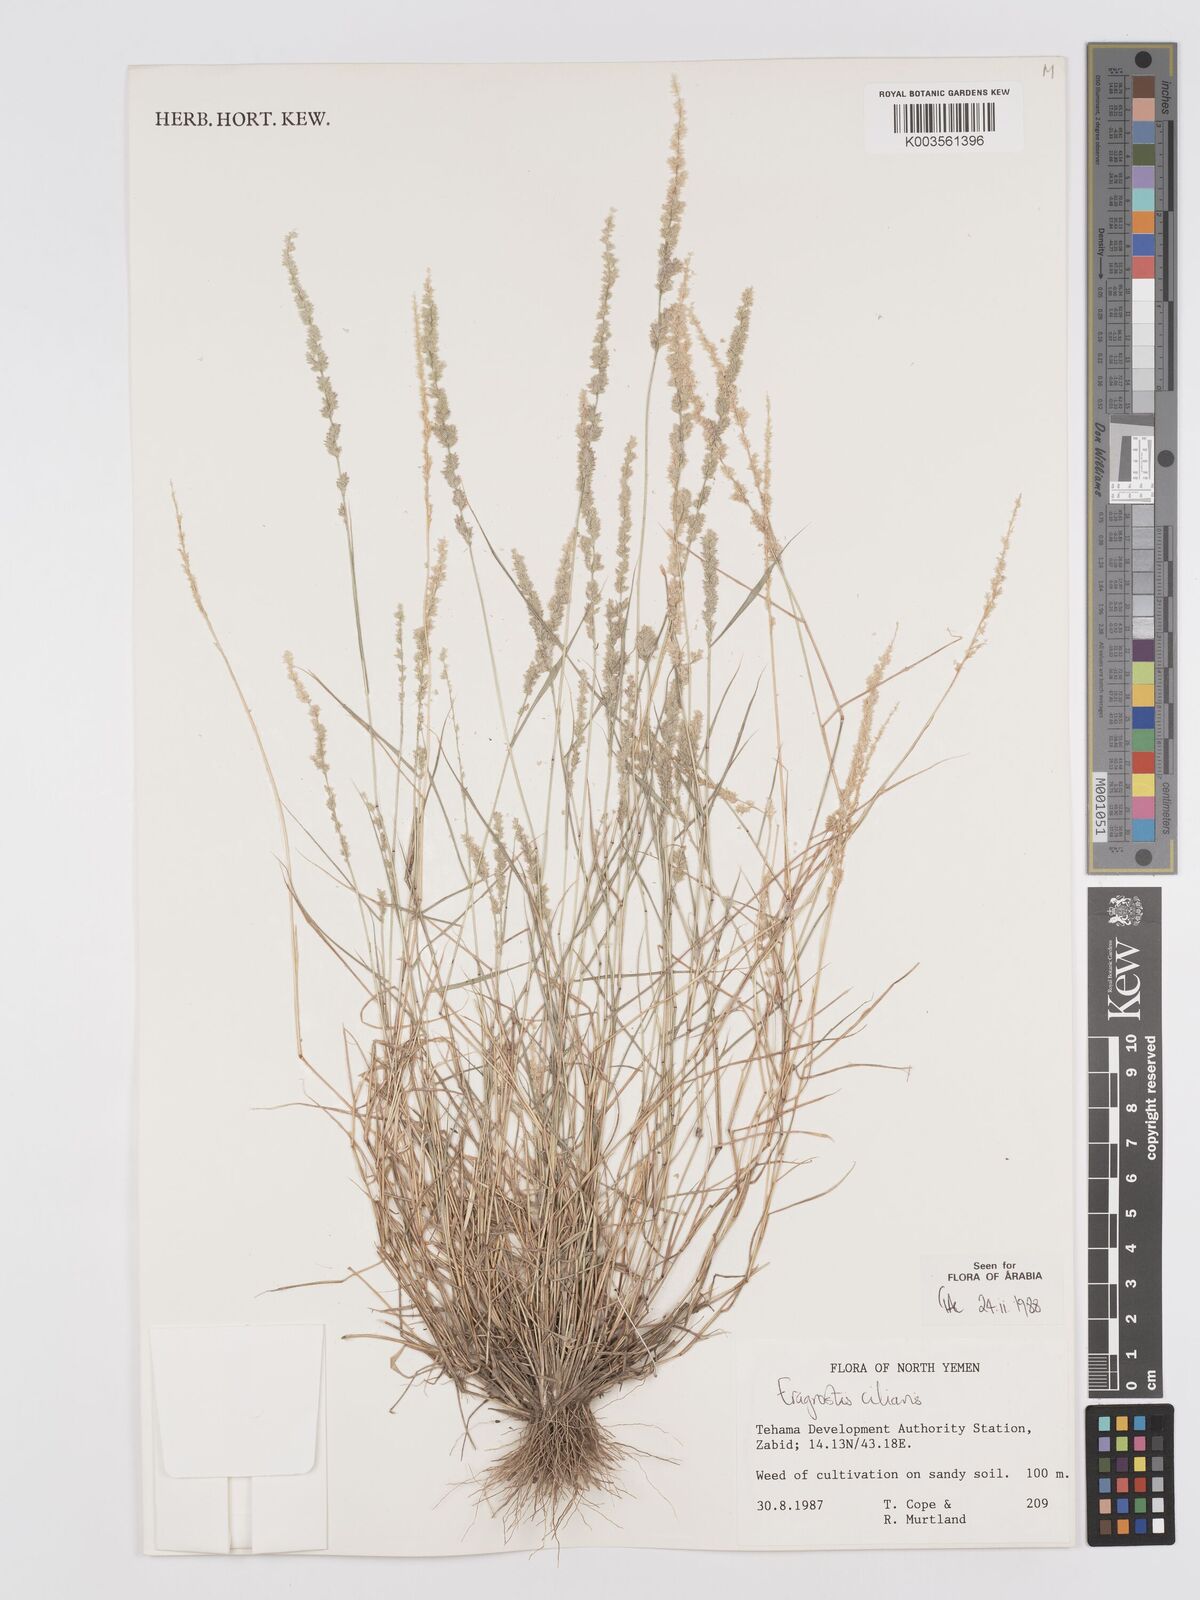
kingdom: Plantae
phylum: Tracheophyta
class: Liliopsida
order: Poales
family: Poaceae
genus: Eragrostis
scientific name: Eragrostis ciliaris
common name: Gophertail lovegrass
